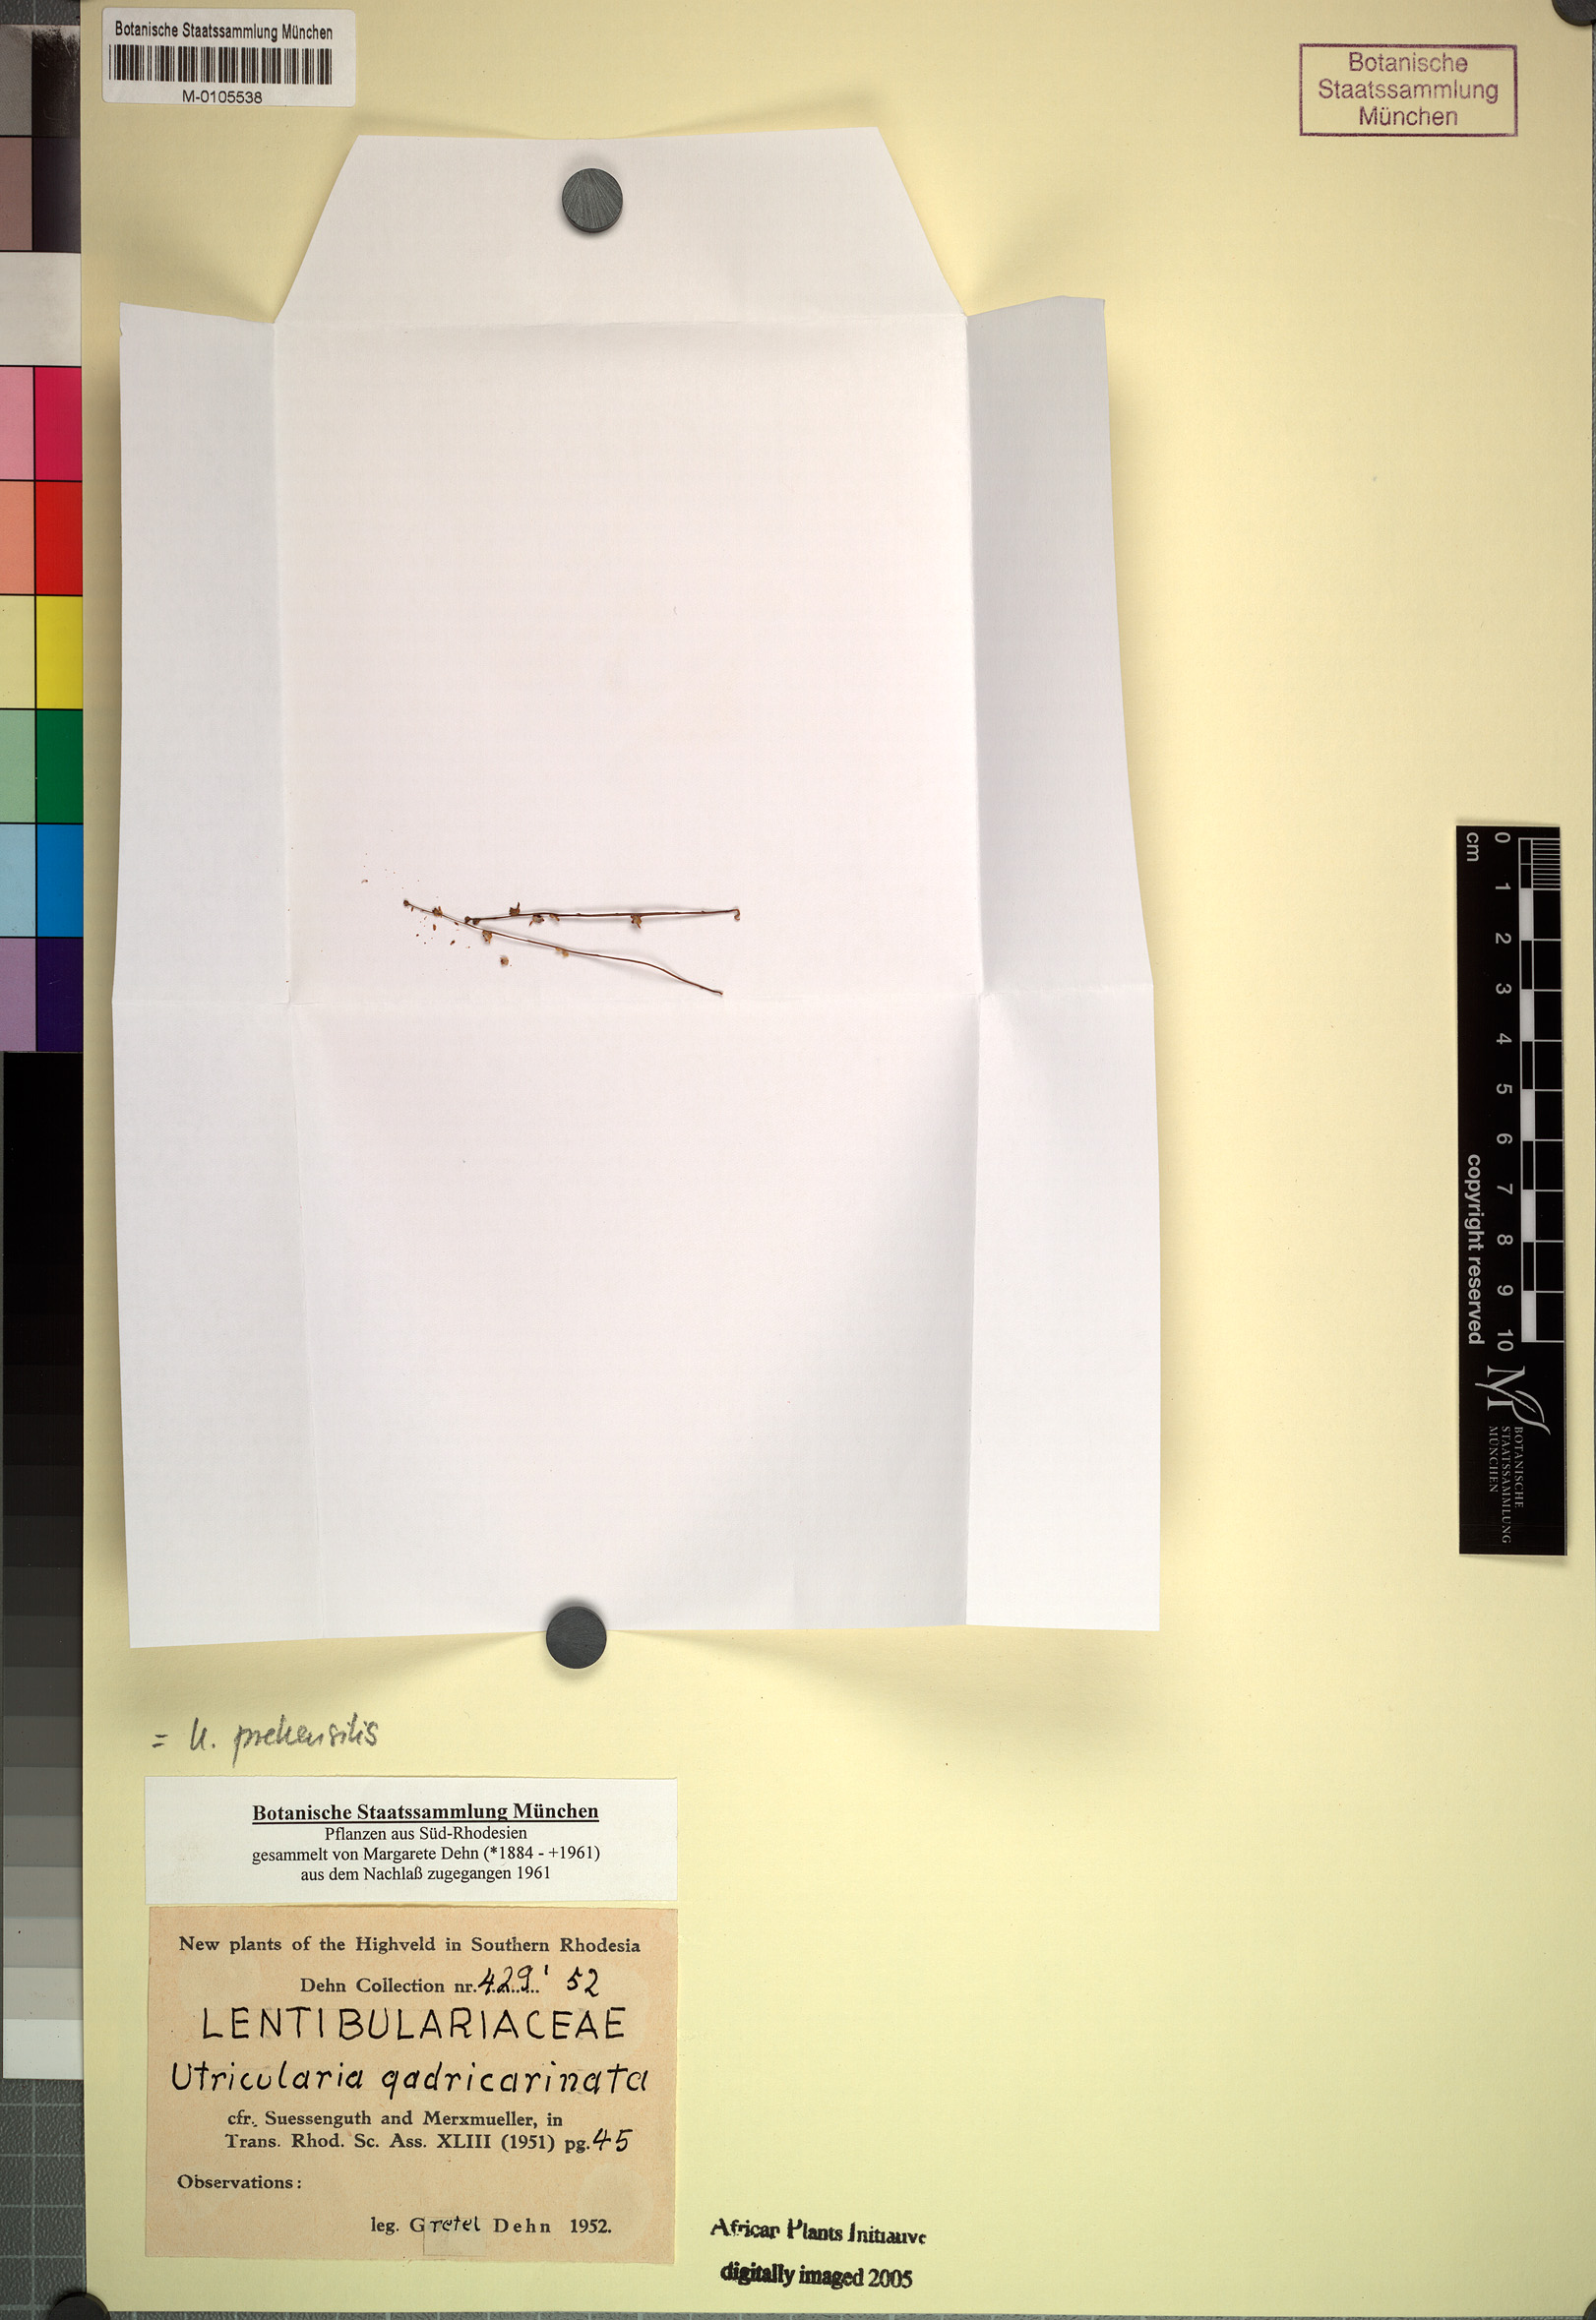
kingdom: Plantae
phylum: Tracheophyta
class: Magnoliopsida
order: Lamiales
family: Lentibulariaceae
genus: Utricularia
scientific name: Utricularia prehensilis
